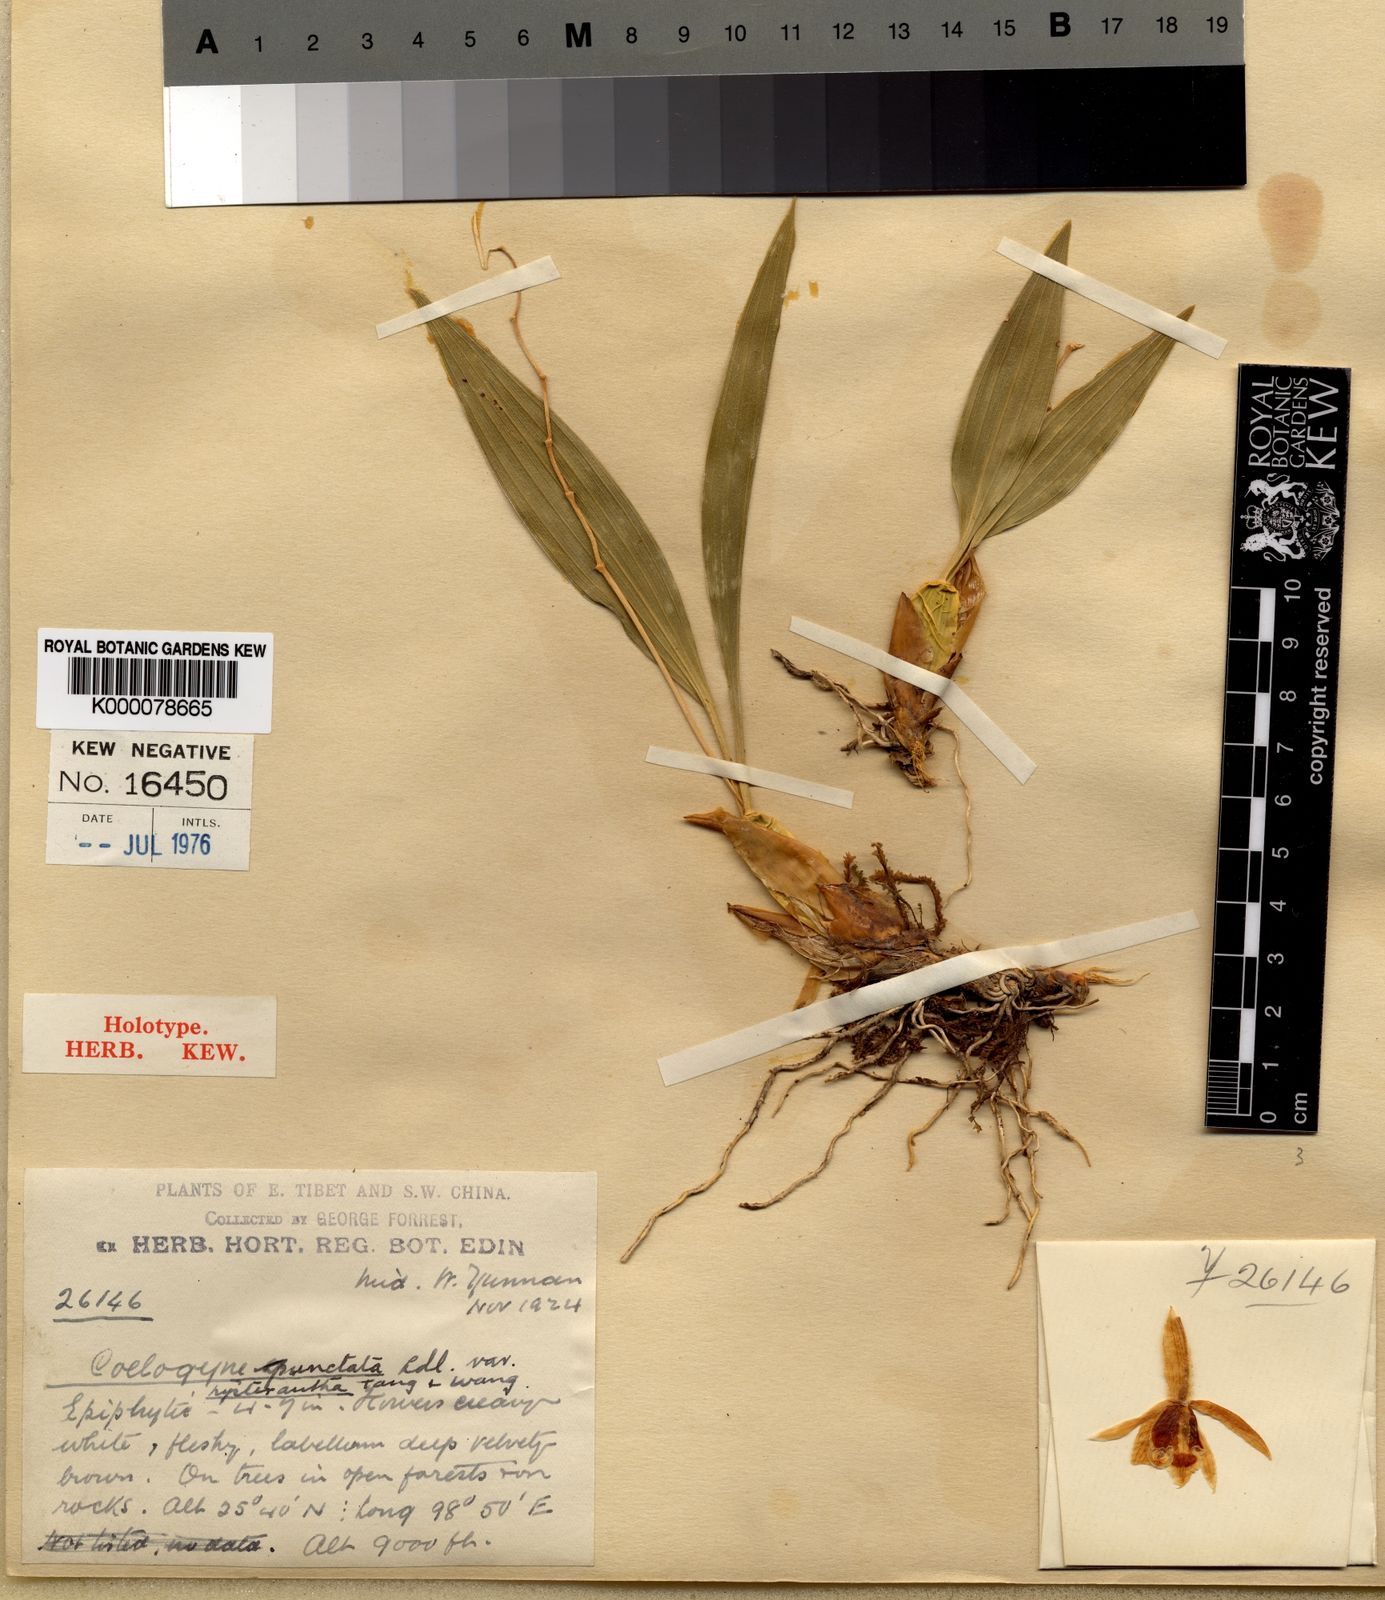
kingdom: Plantae
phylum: Tracheophyta
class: Liliopsida
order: Asparagales
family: Orchidaceae
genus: Coelogyne
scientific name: Coelogyne punctulata
